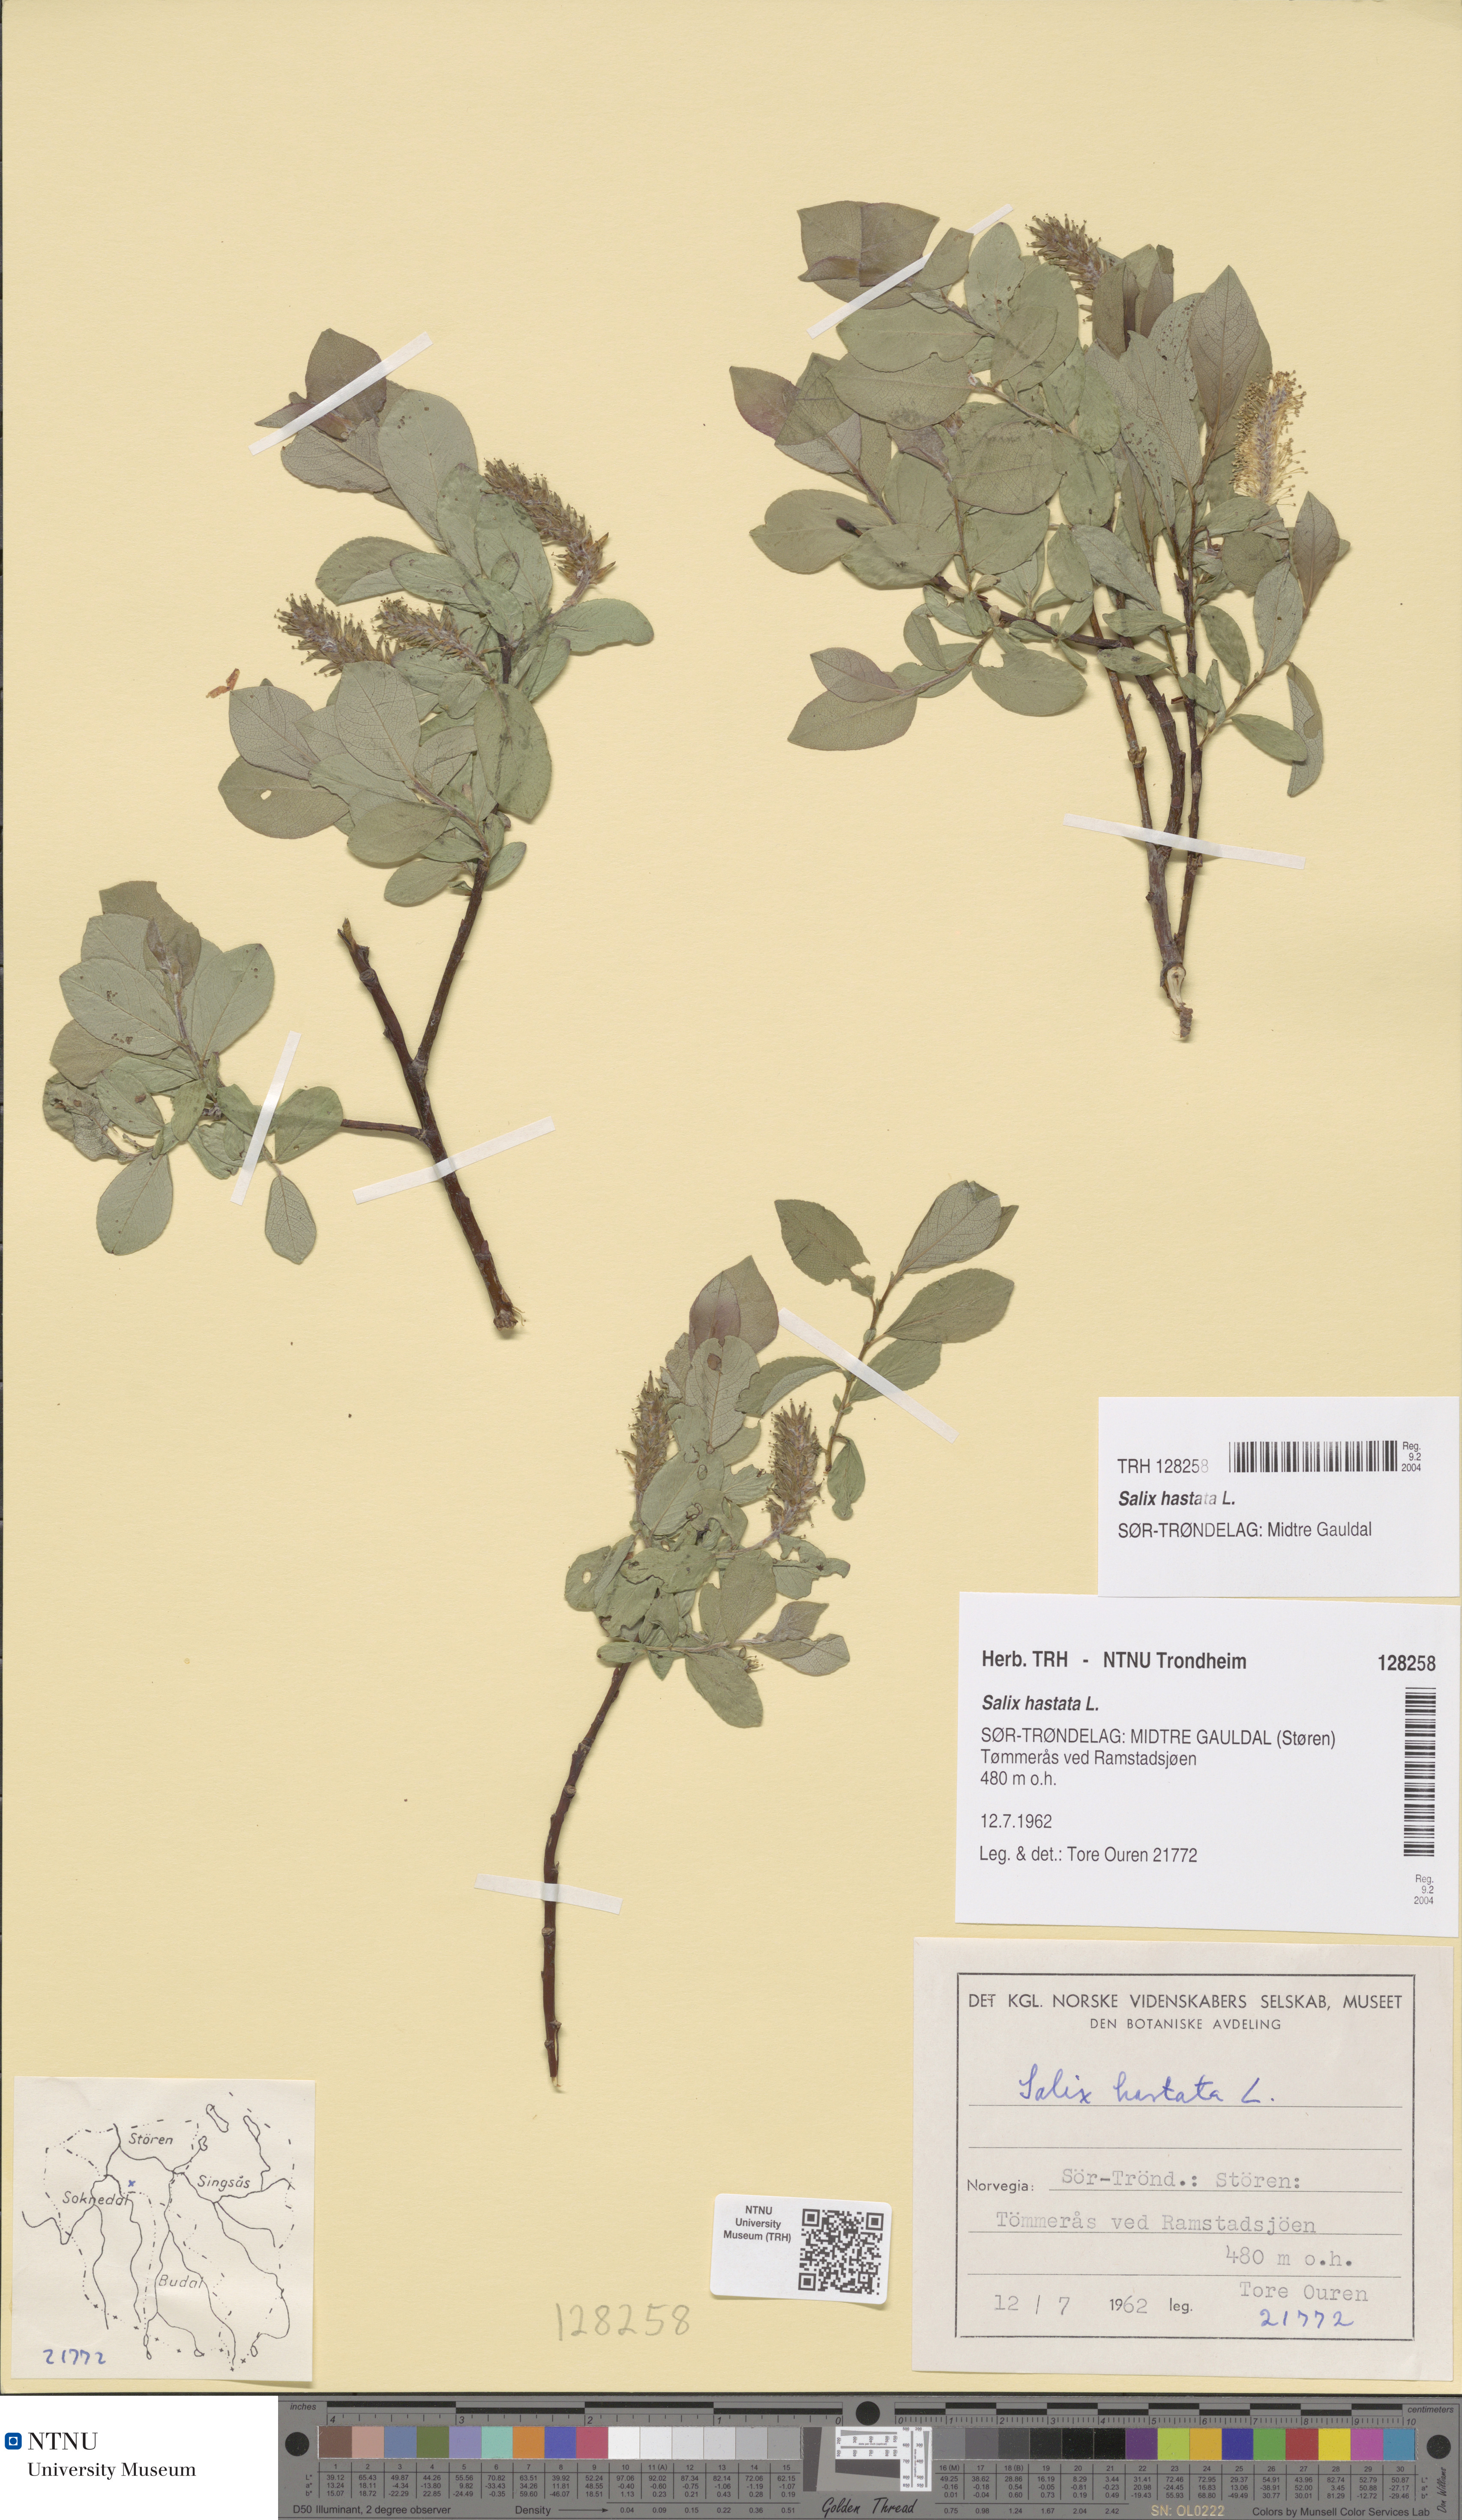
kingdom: Plantae
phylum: Tracheophyta
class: Magnoliopsida
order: Malpighiales
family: Salicaceae
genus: Salix
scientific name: Salix hastata
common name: Halberd willow
